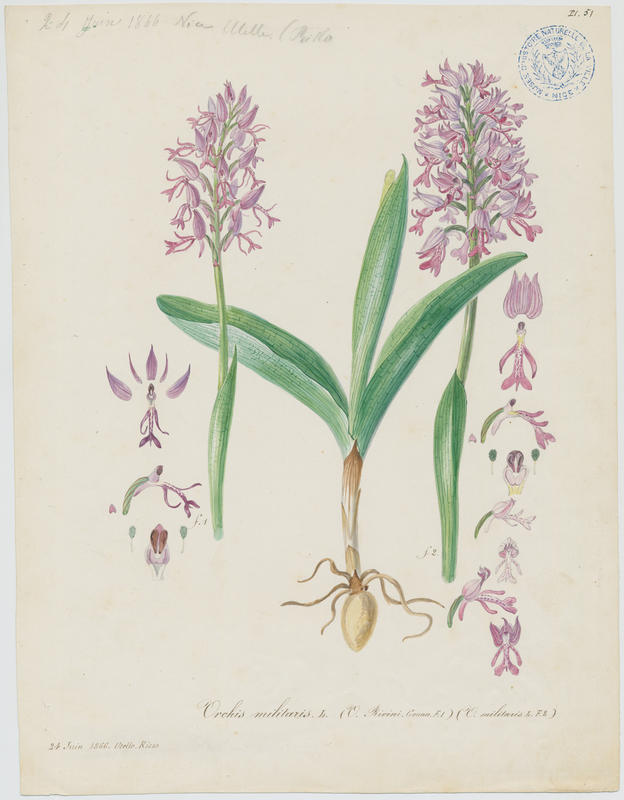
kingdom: Plantae
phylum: Tracheophyta
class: Liliopsida
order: Asparagales
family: Orchidaceae
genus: Orchis
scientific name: Orchis militaris
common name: Military orchid
